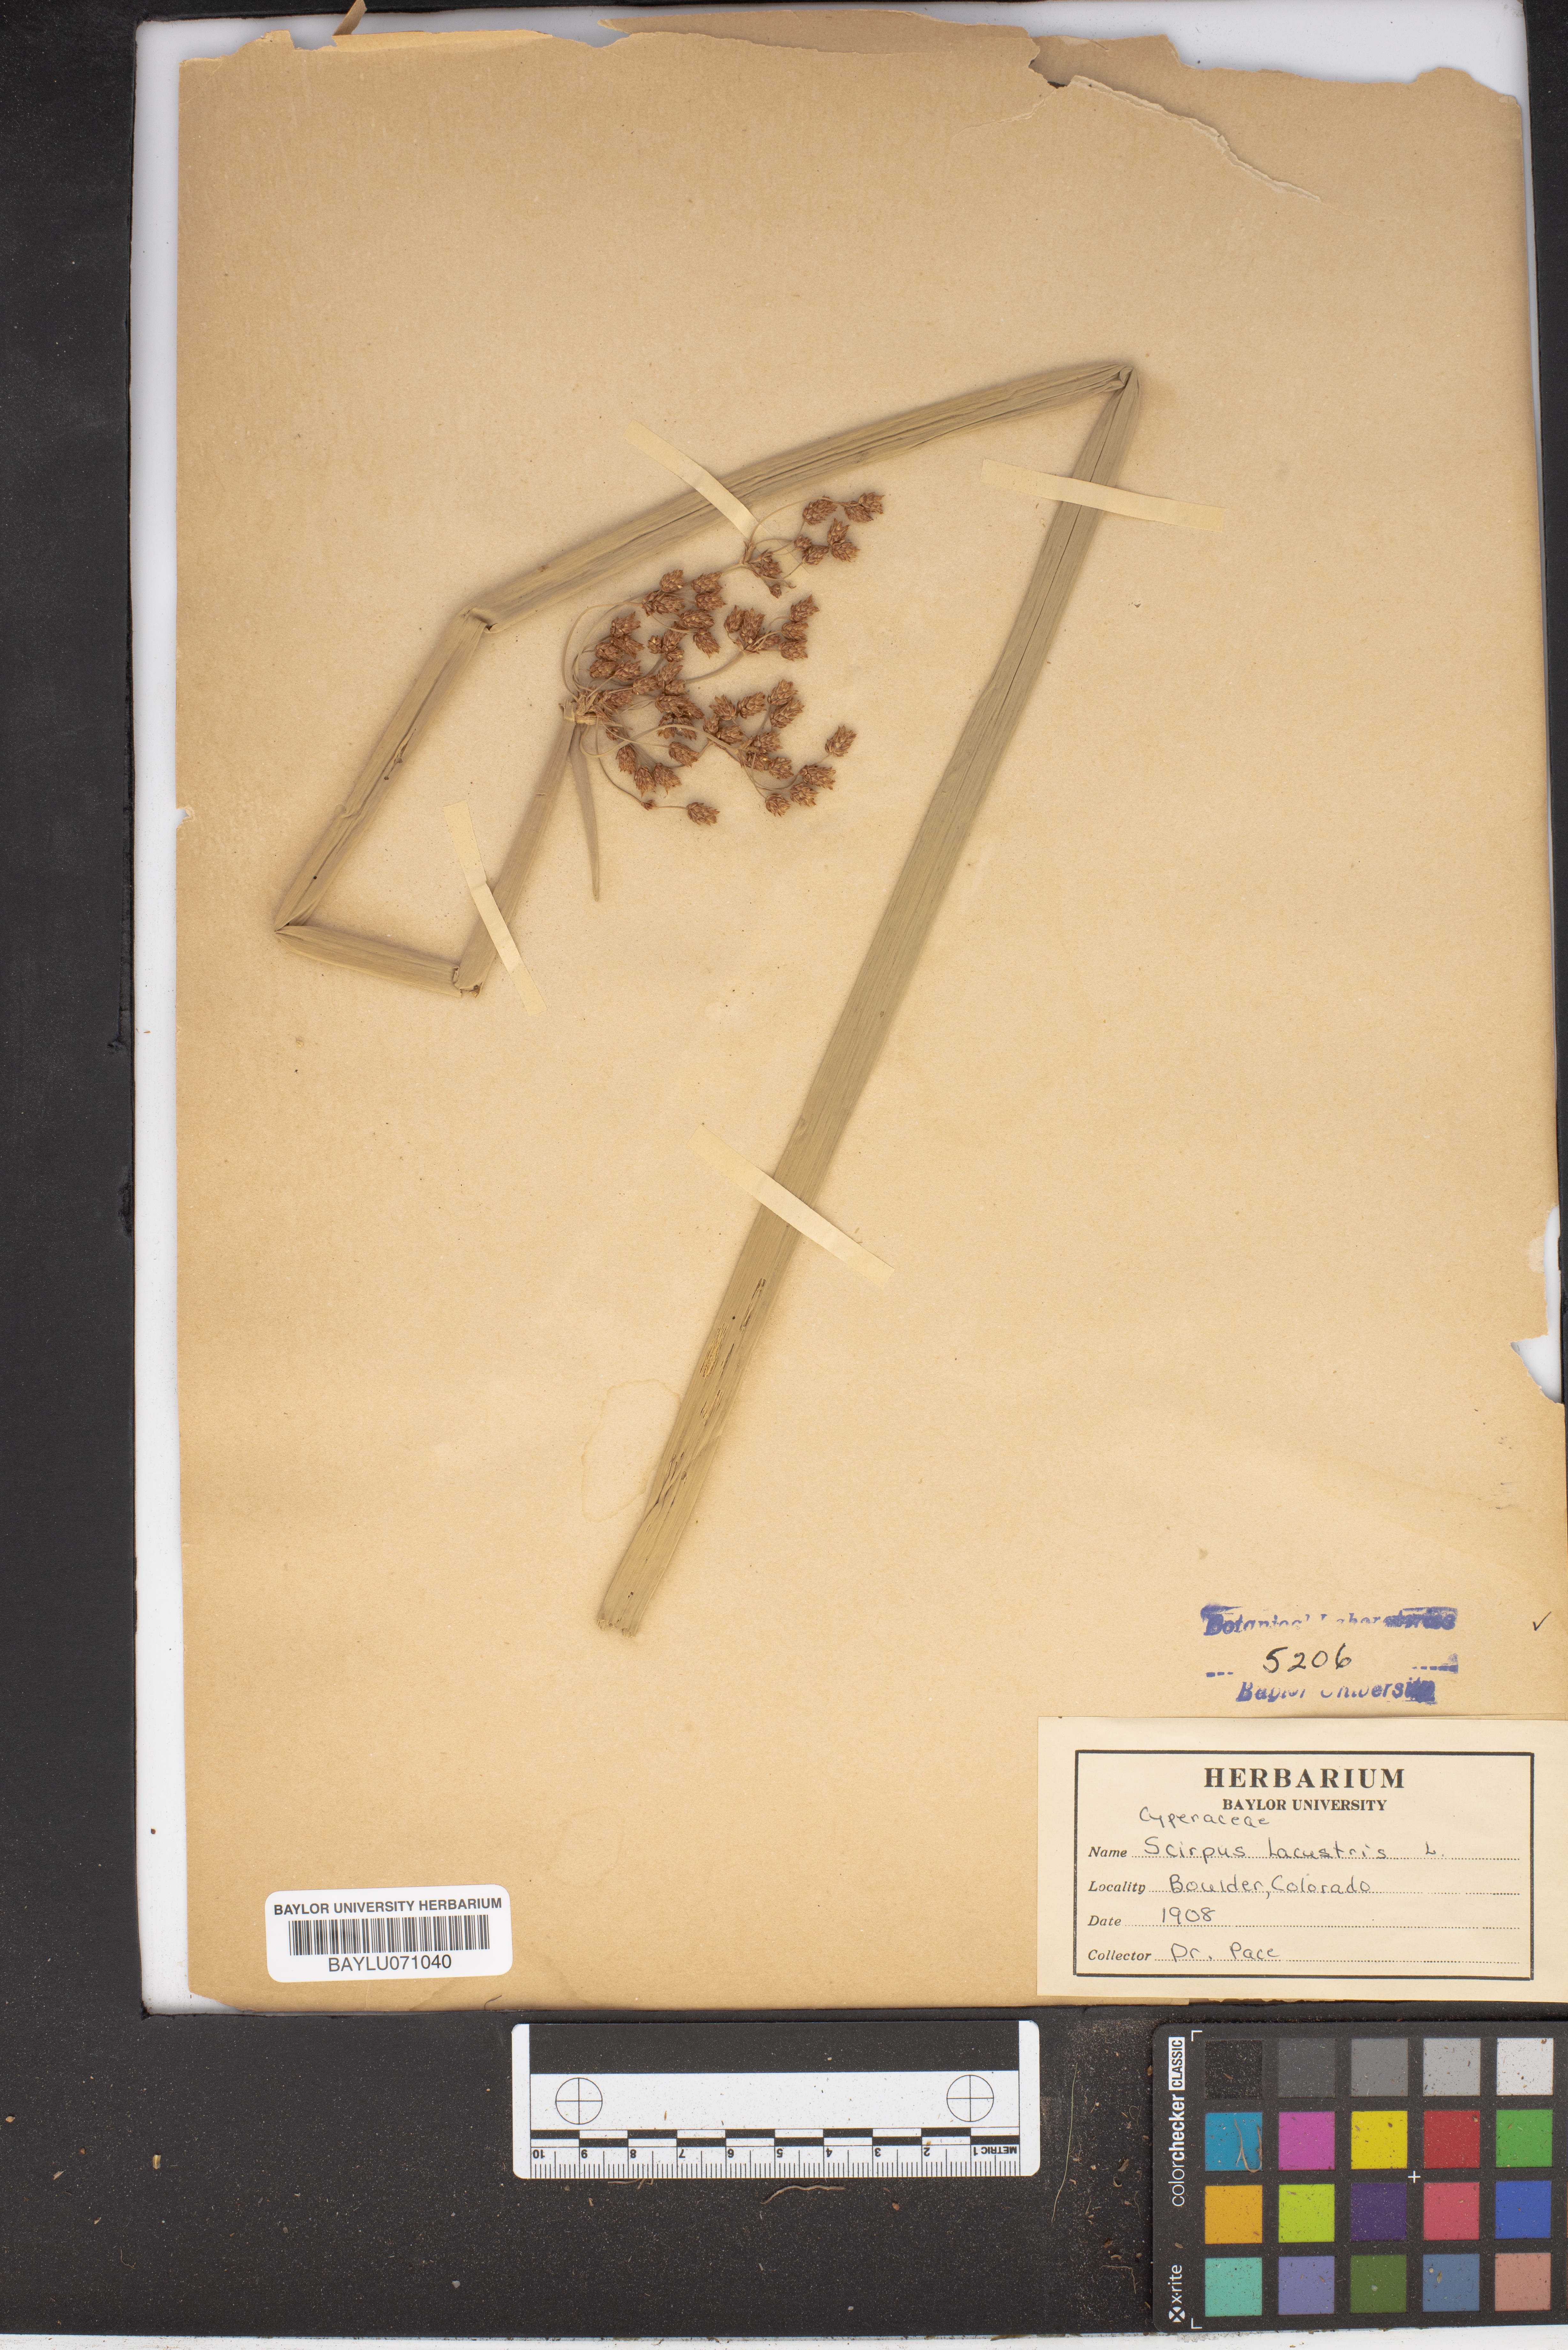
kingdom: Plantae
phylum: Tracheophyta
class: Liliopsida
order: Poales
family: Cyperaceae
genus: Schoenoplectus
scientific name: Schoenoplectus lacustris
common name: Common club-rush
